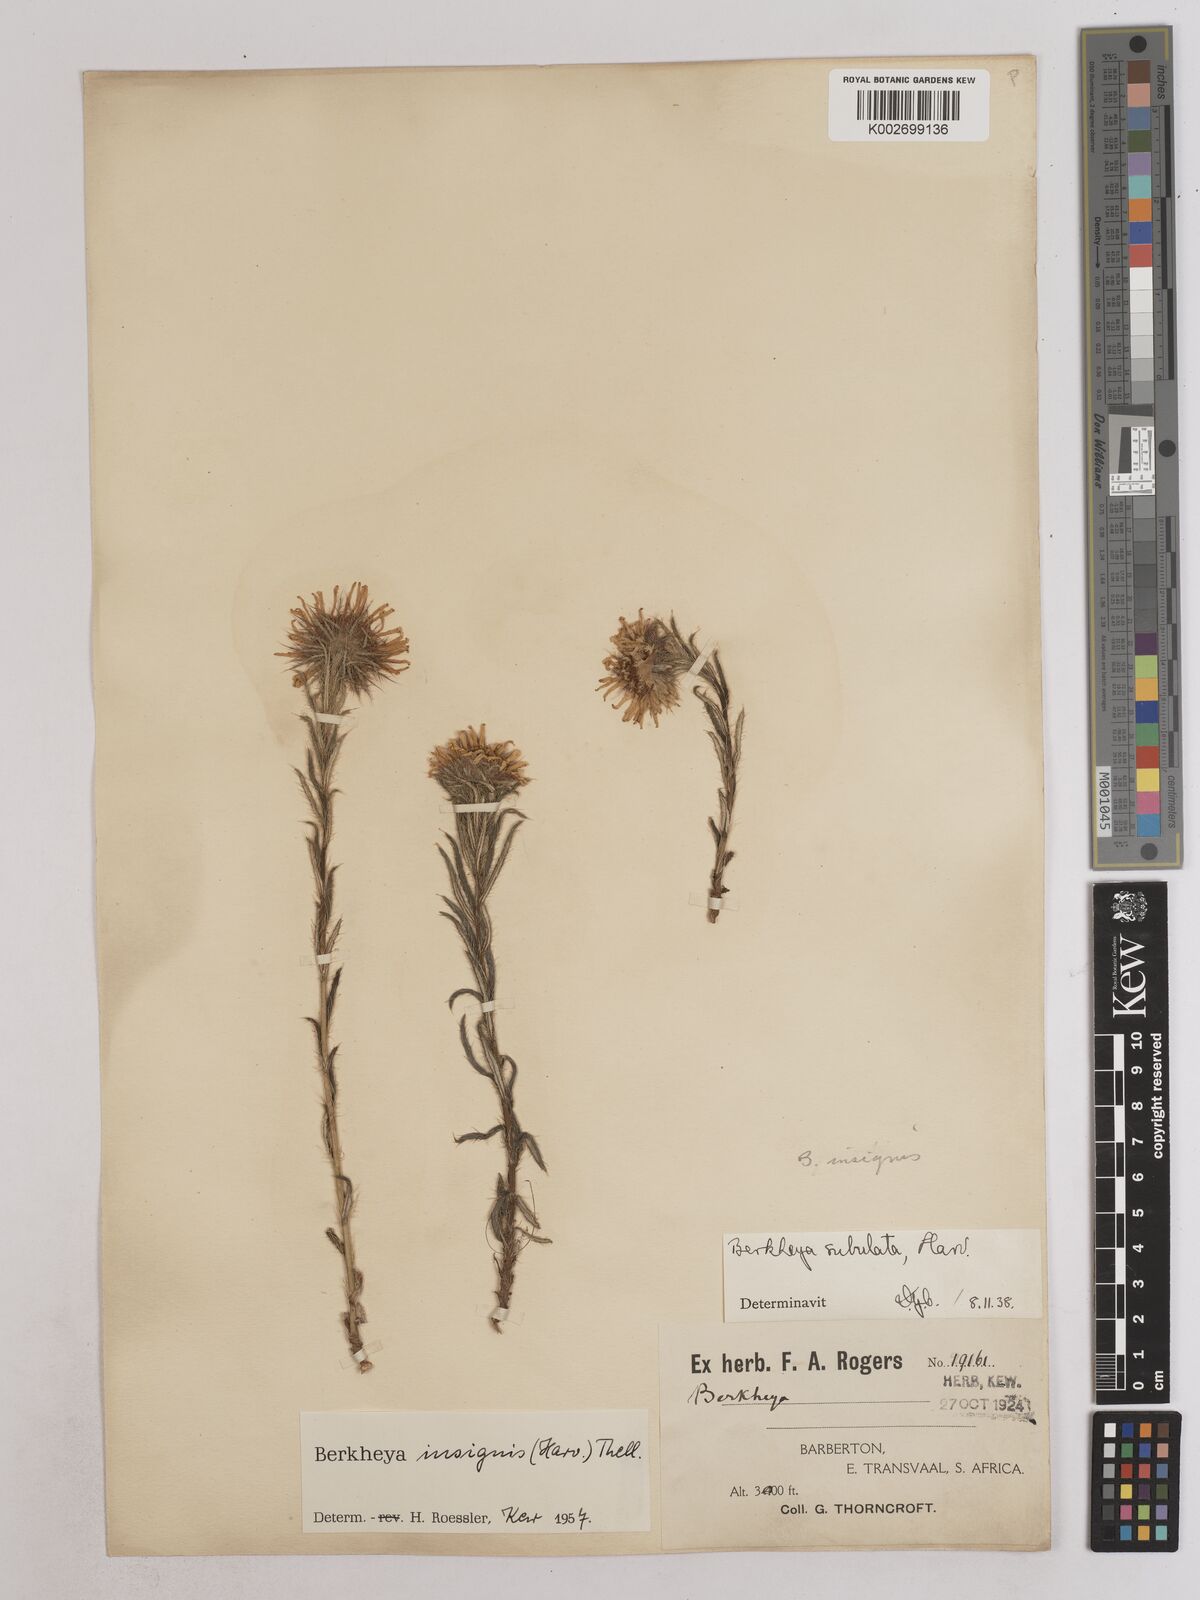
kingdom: Plantae
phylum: Tracheophyta
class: Magnoliopsida
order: Asterales
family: Asteraceae
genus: Berkheya
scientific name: Berkheya insignis
